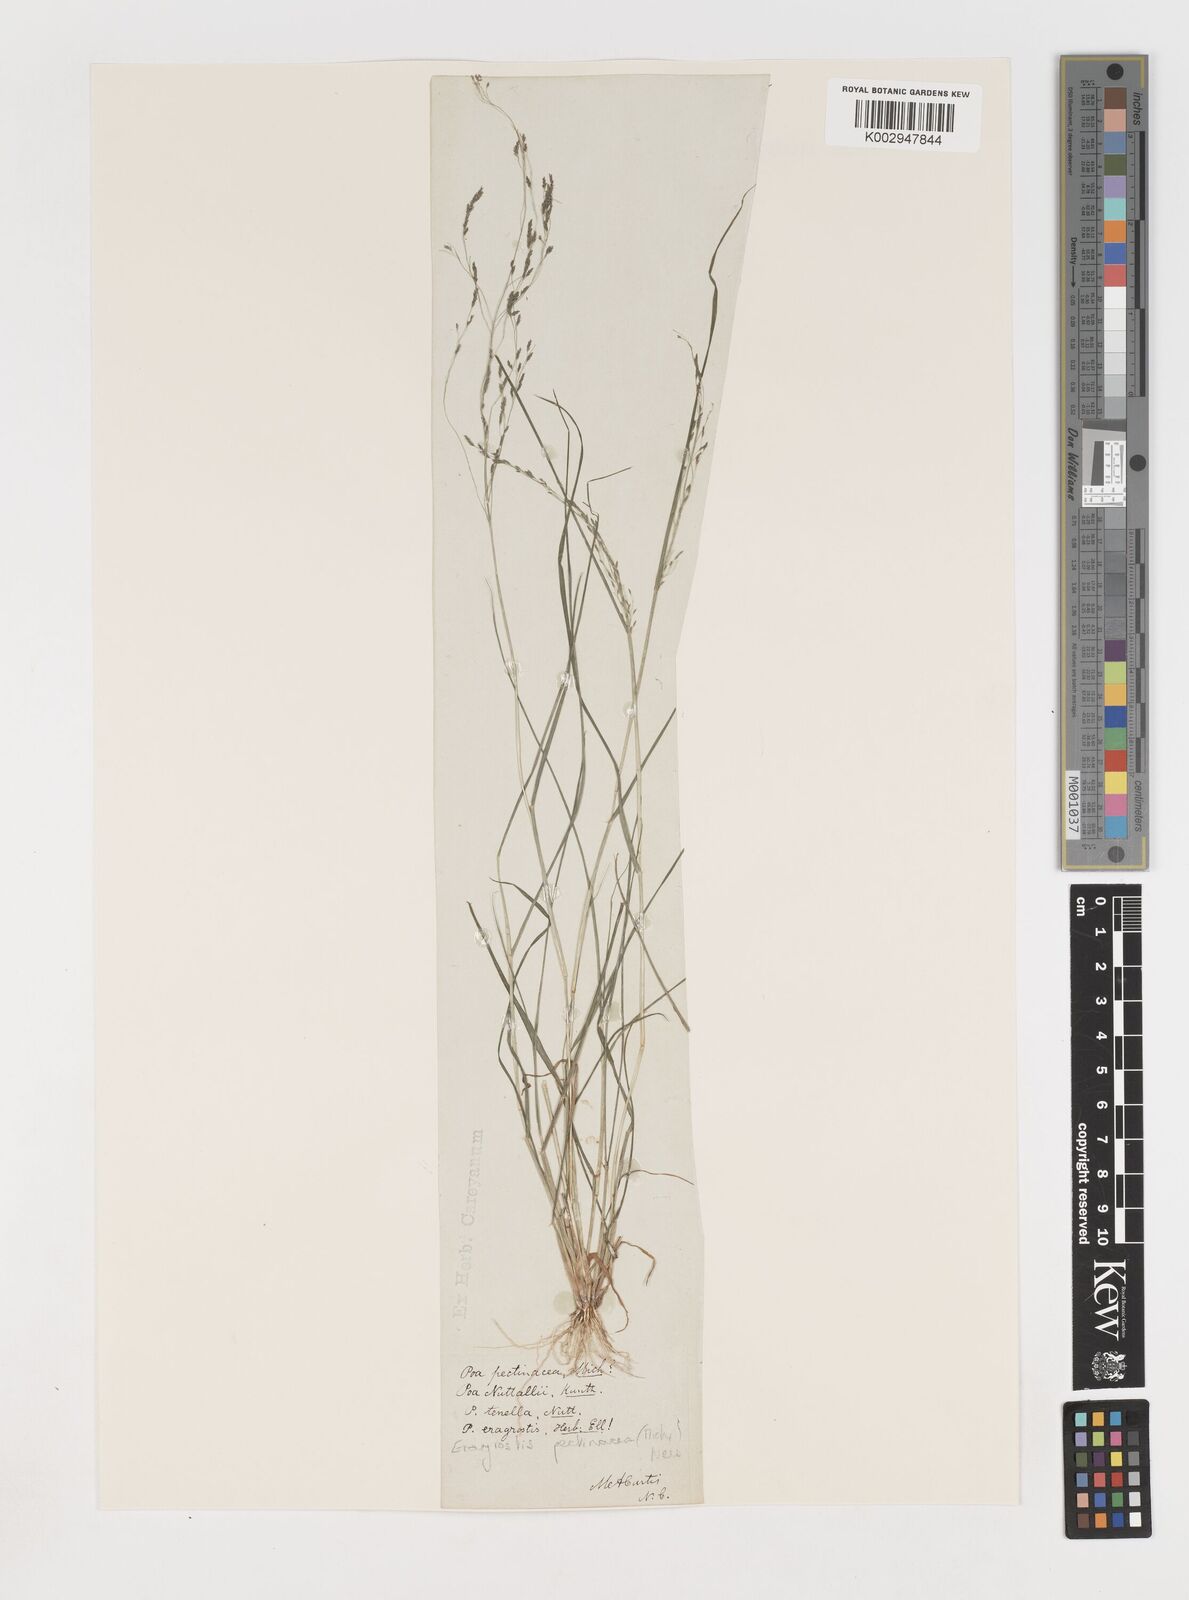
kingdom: Plantae
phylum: Tracheophyta
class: Liliopsida
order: Poales
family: Poaceae
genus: Eragrostis
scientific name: Eragrostis pectinacea
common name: Tufted lovegrass
